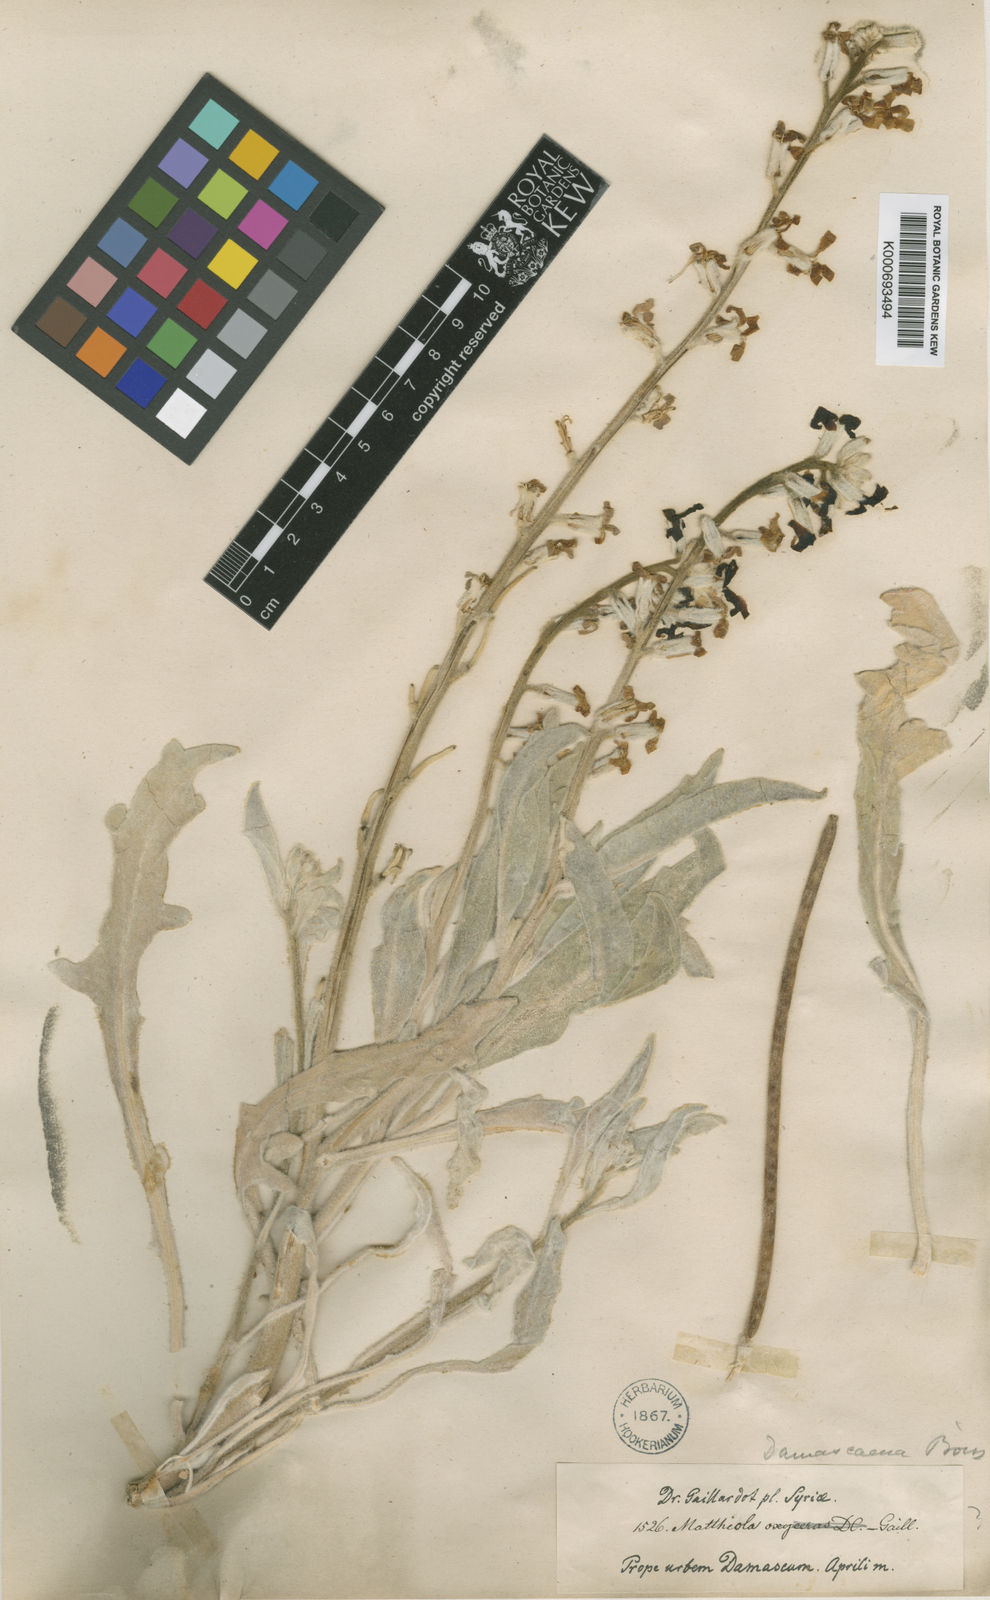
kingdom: Plantae
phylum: Tracheophyta
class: Magnoliopsida
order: Brassicales
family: Brassicaceae
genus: Matthiola
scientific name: Matthiola damascena
